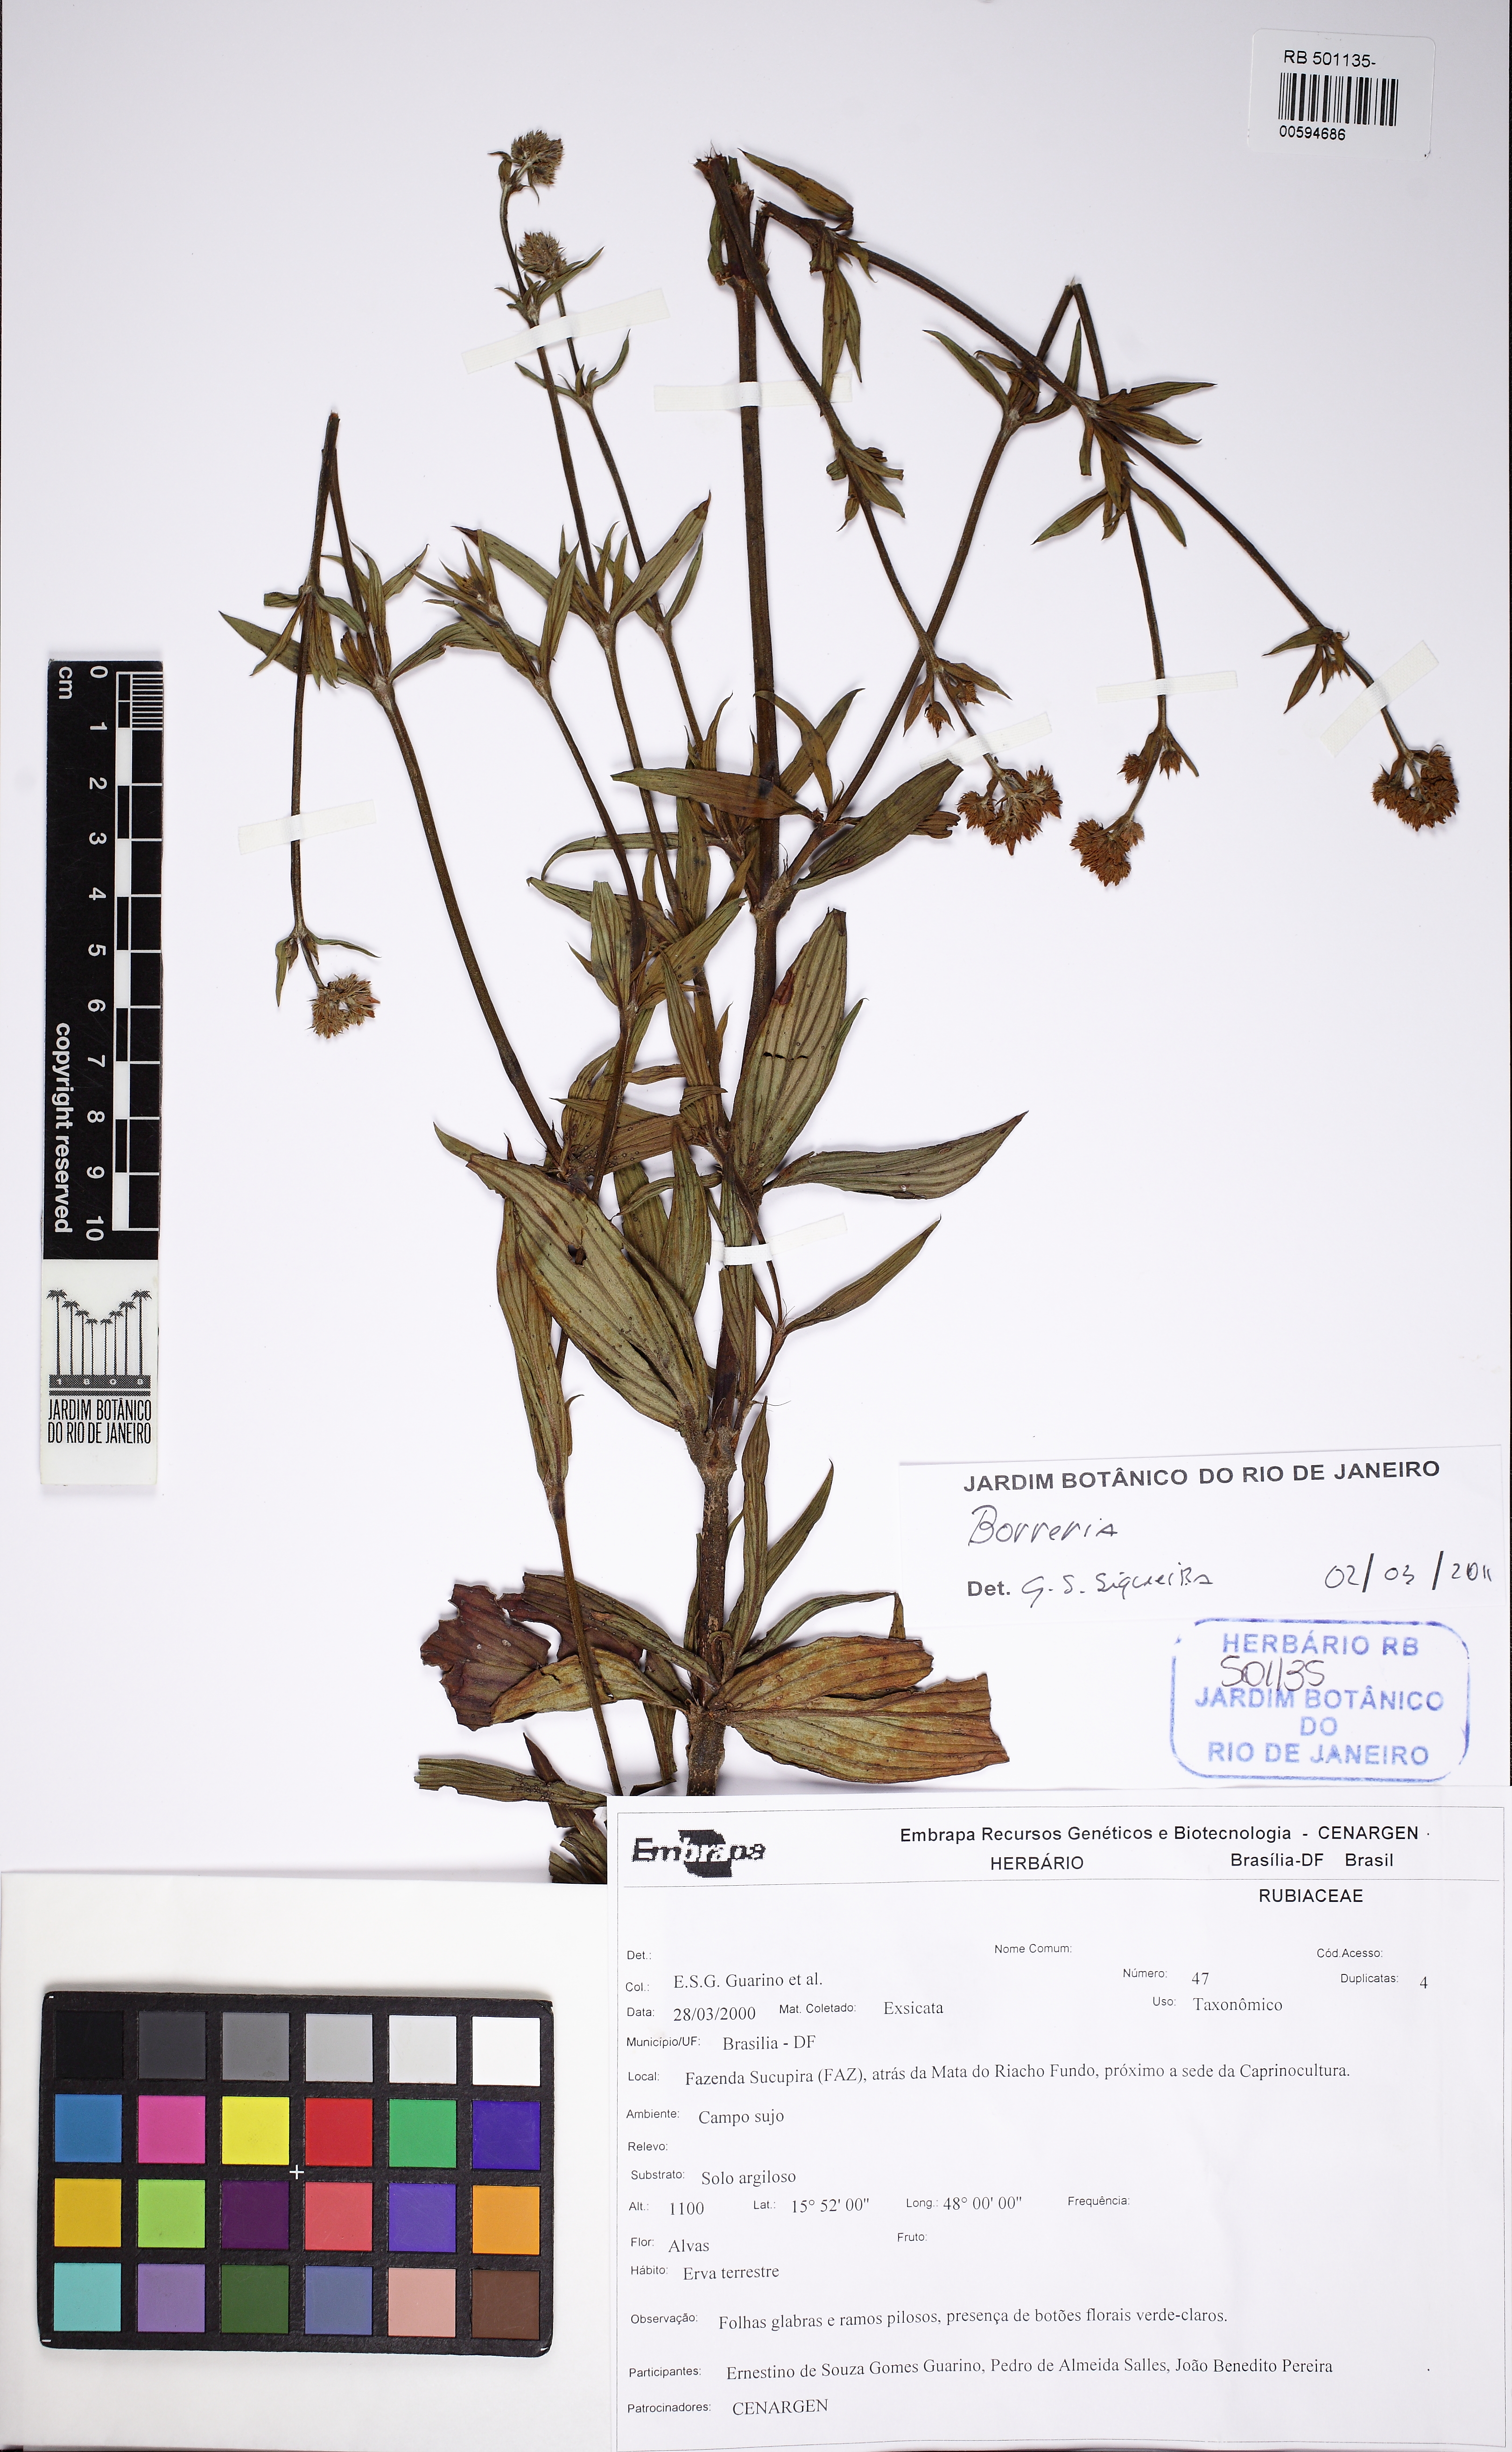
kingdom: Plantae
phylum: Tracheophyta
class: Magnoliopsida
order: Gentianales
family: Rubiaceae
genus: Ladenbergia
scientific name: Ladenbergia oblongifolia
